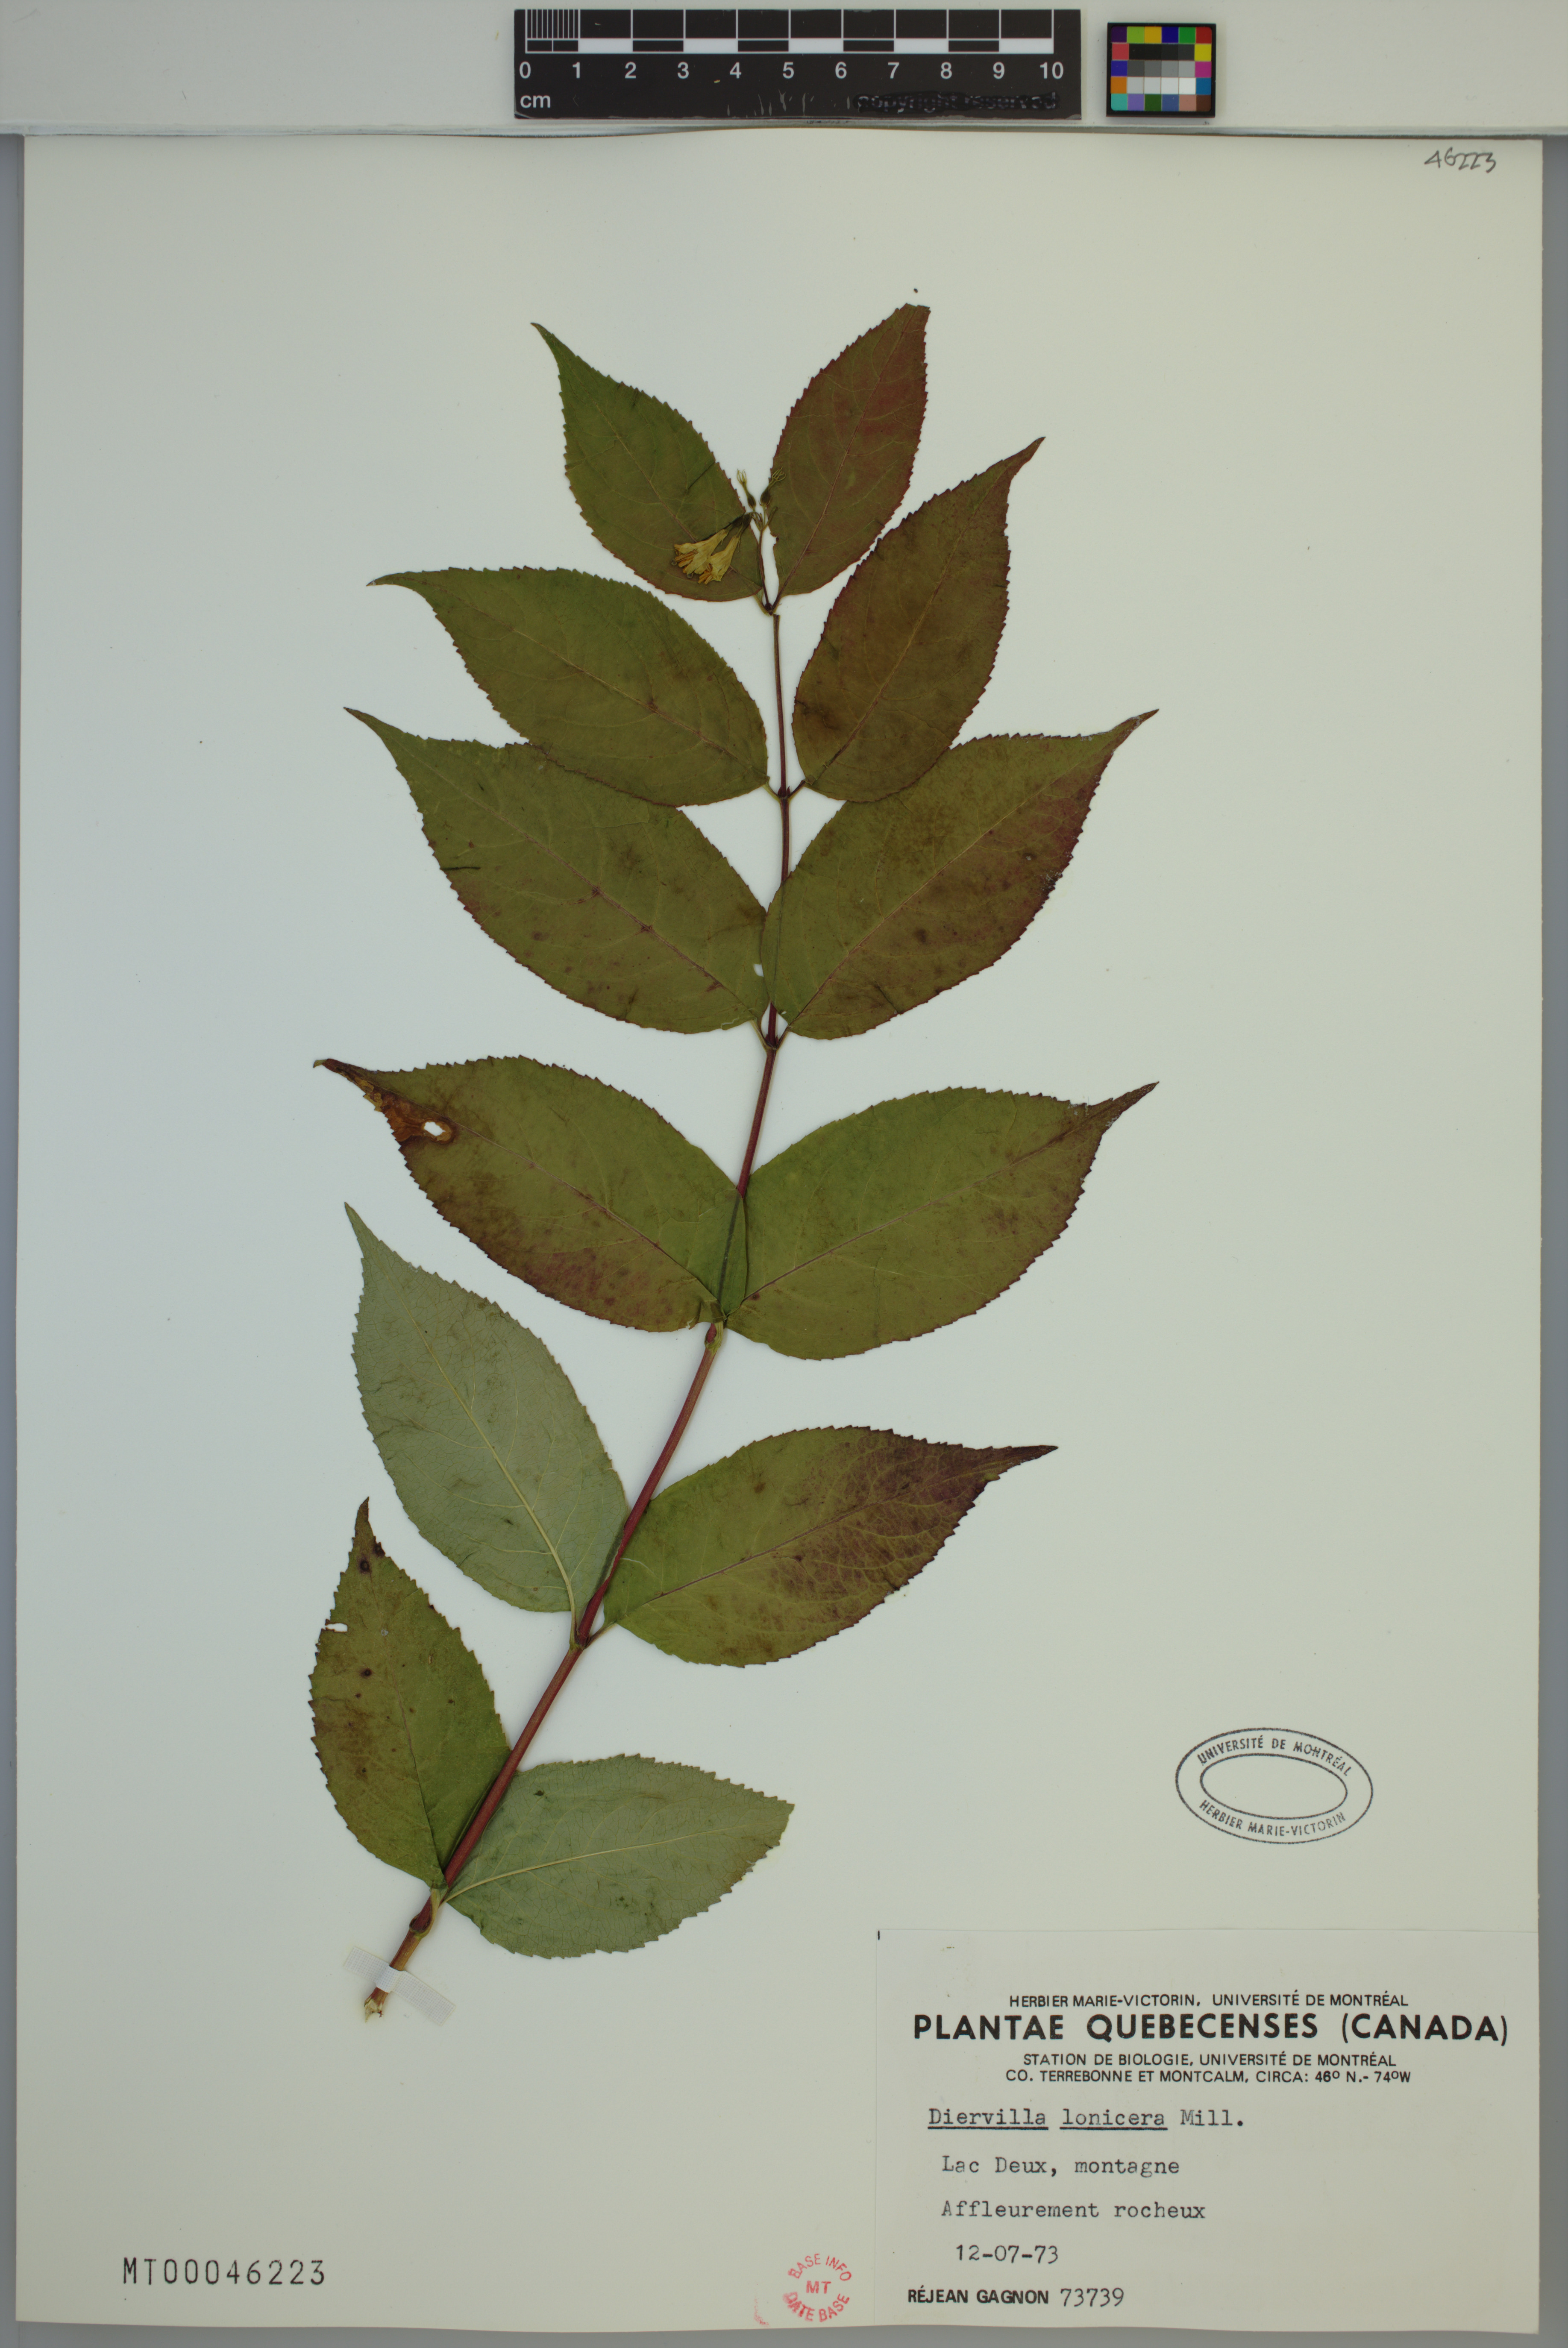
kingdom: Plantae
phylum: Tracheophyta
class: Magnoliopsida
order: Dipsacales
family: Caprifoliaceae
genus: Diervilla
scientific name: Diervilla lonicera
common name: Bush-honeysuckle
